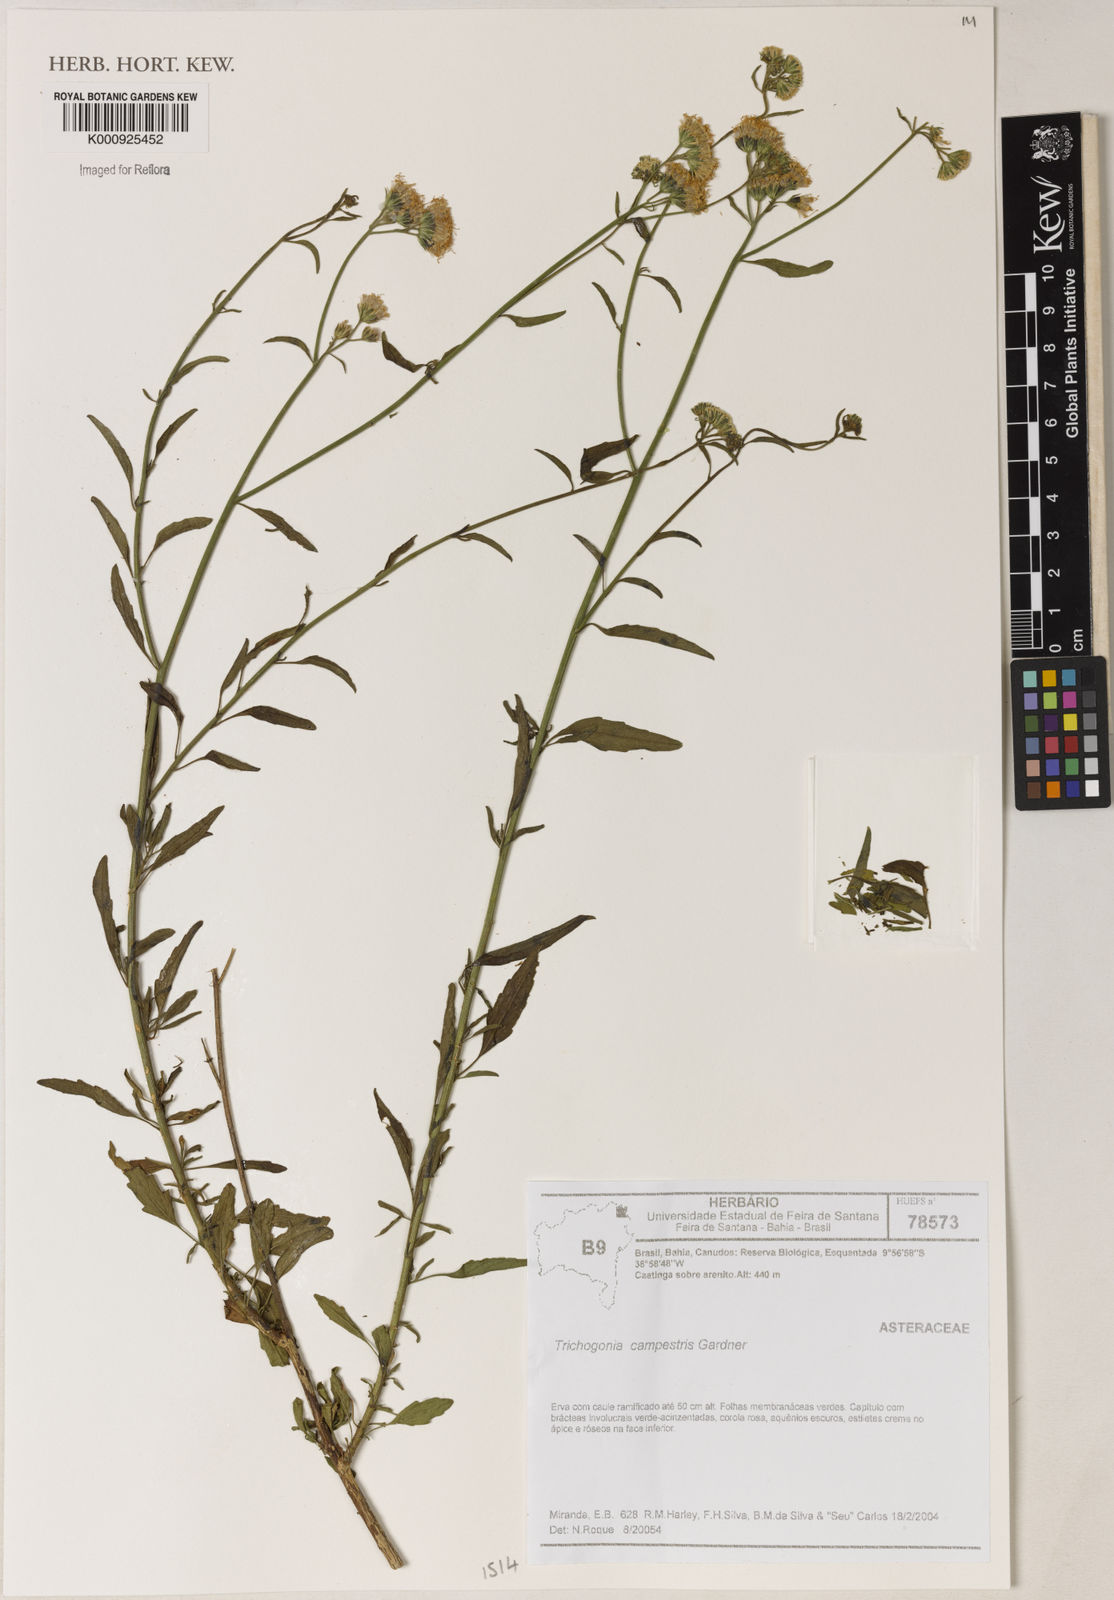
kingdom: Plantae
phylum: Tracheophyta
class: Magnoliopsida
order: Asterales
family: Asteraceae
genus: Trichogonia
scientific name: Trichogonia campestris
